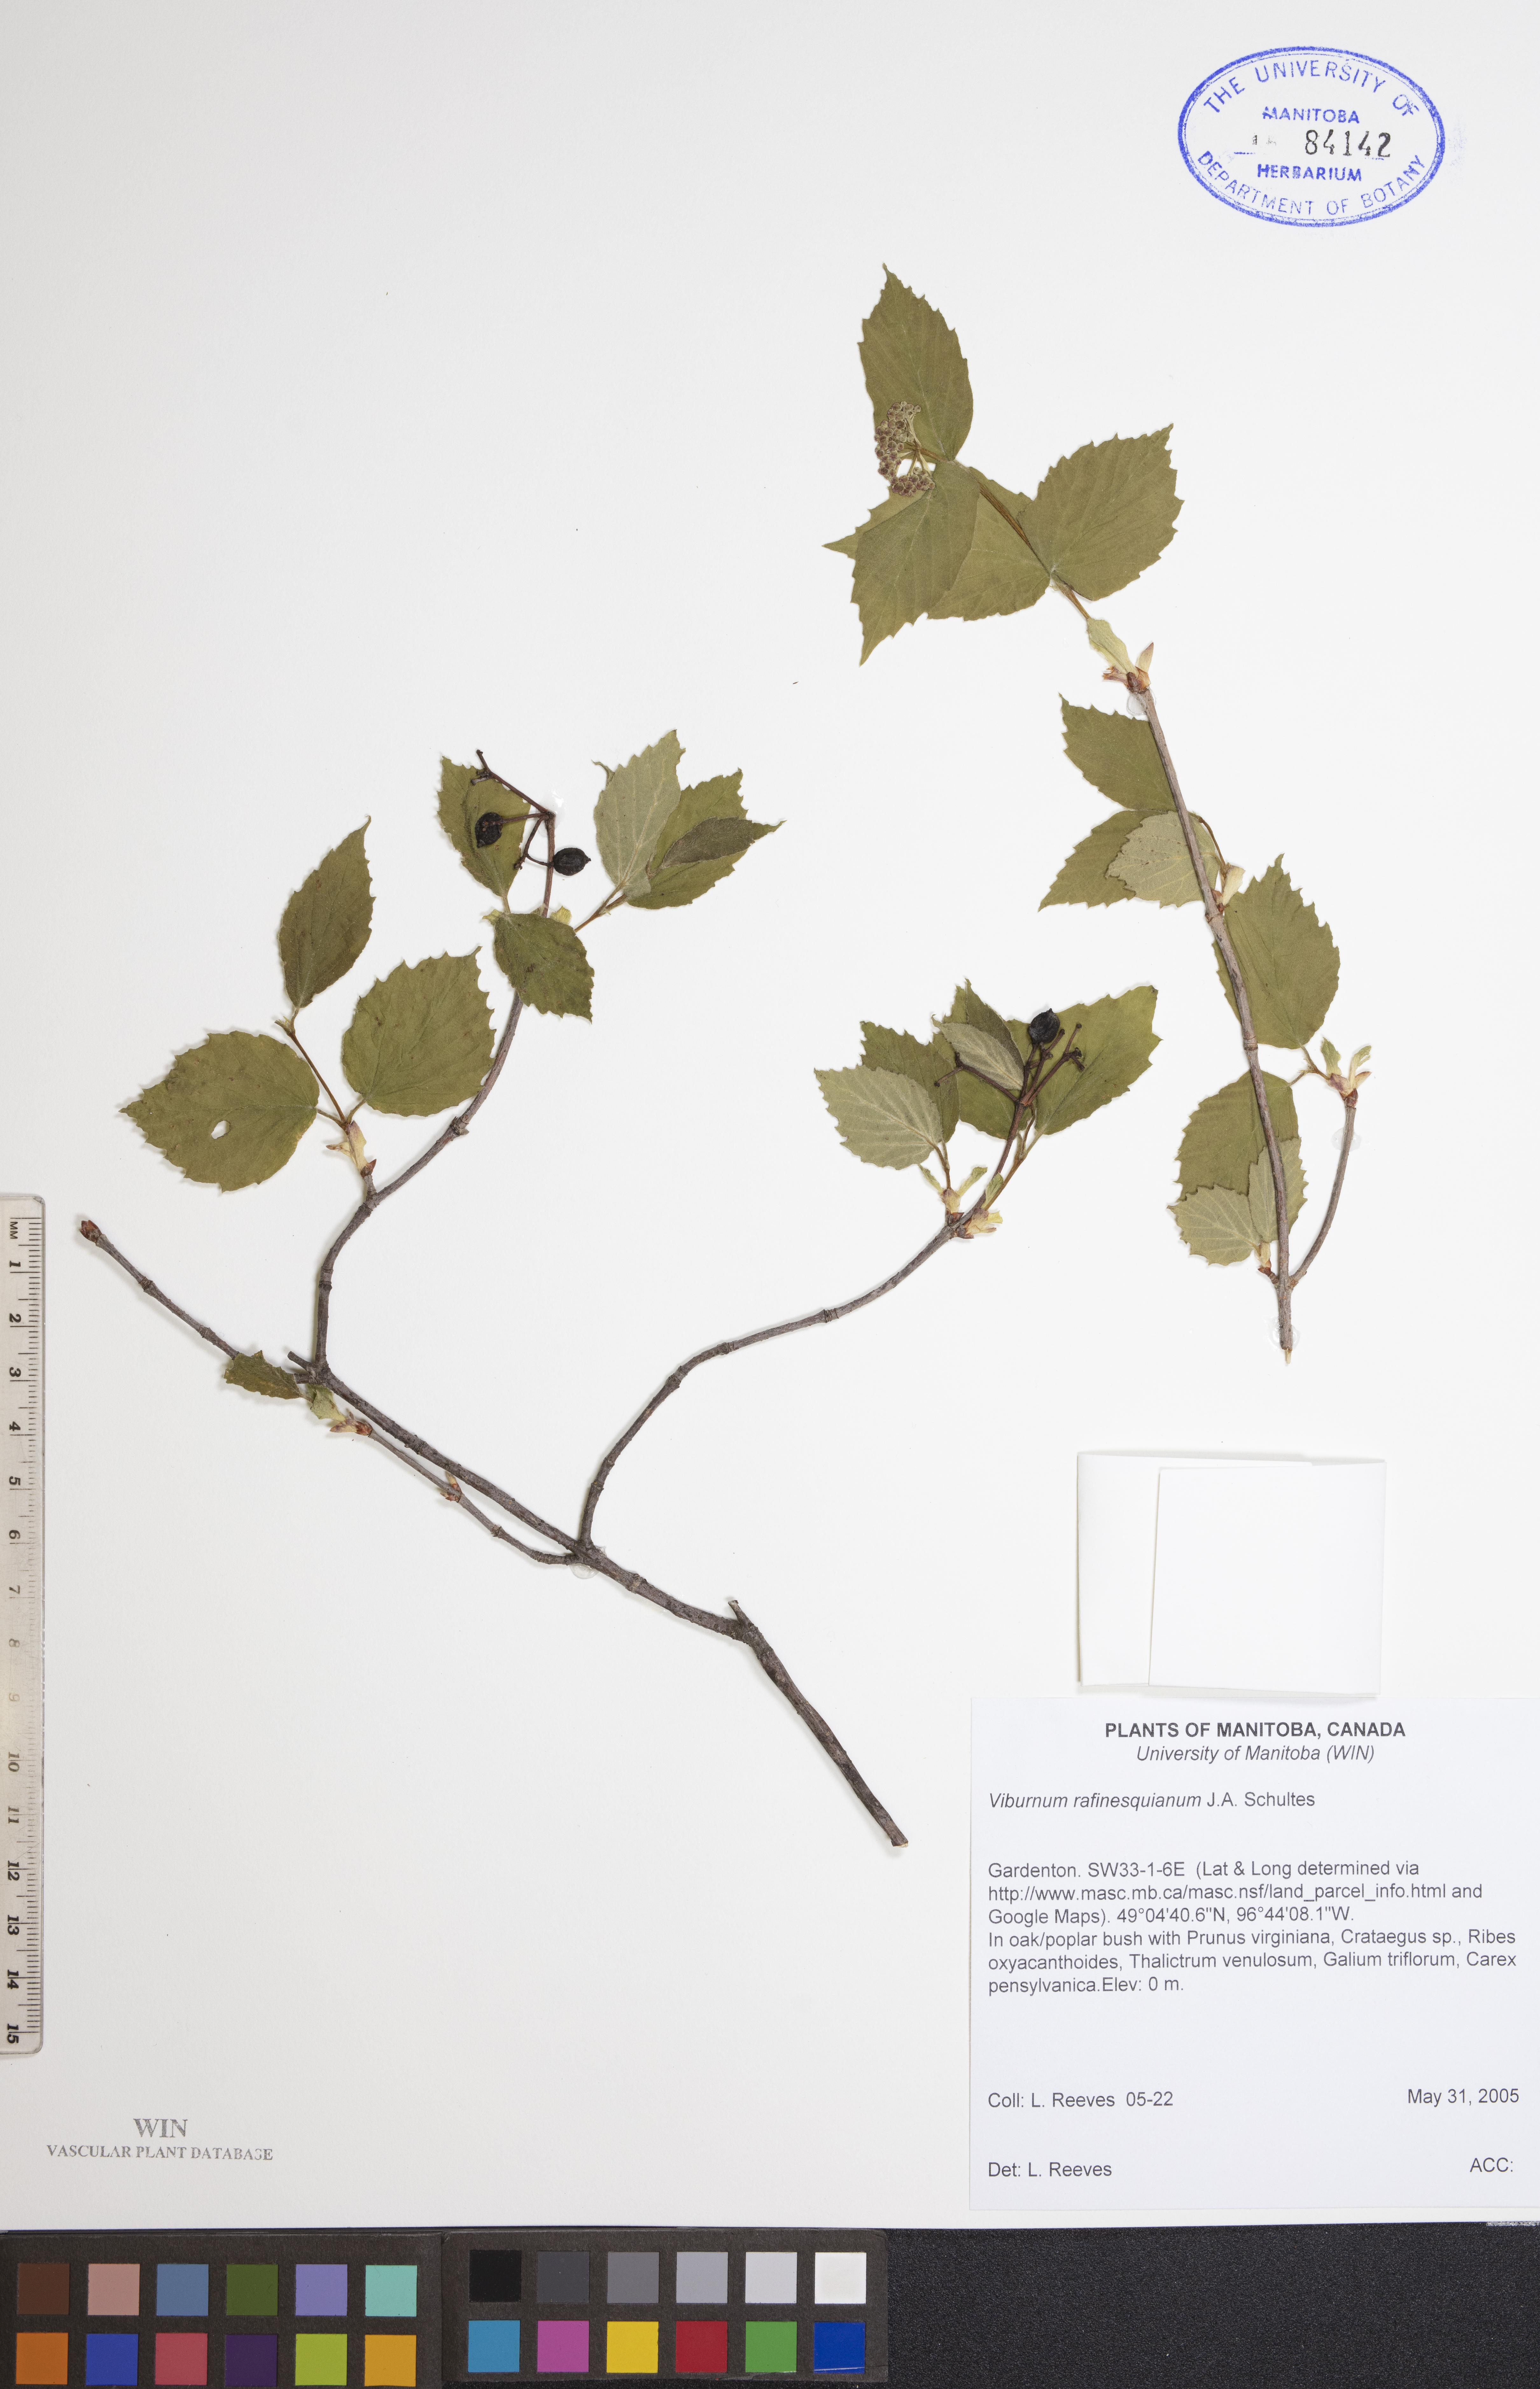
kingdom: Plantae
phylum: Tracheophyta
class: Magnoliopsida
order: Dipsacales
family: Viburnaceae
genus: Viburnum
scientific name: Viburnum rafinesquianum
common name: Downy arrow-wood
